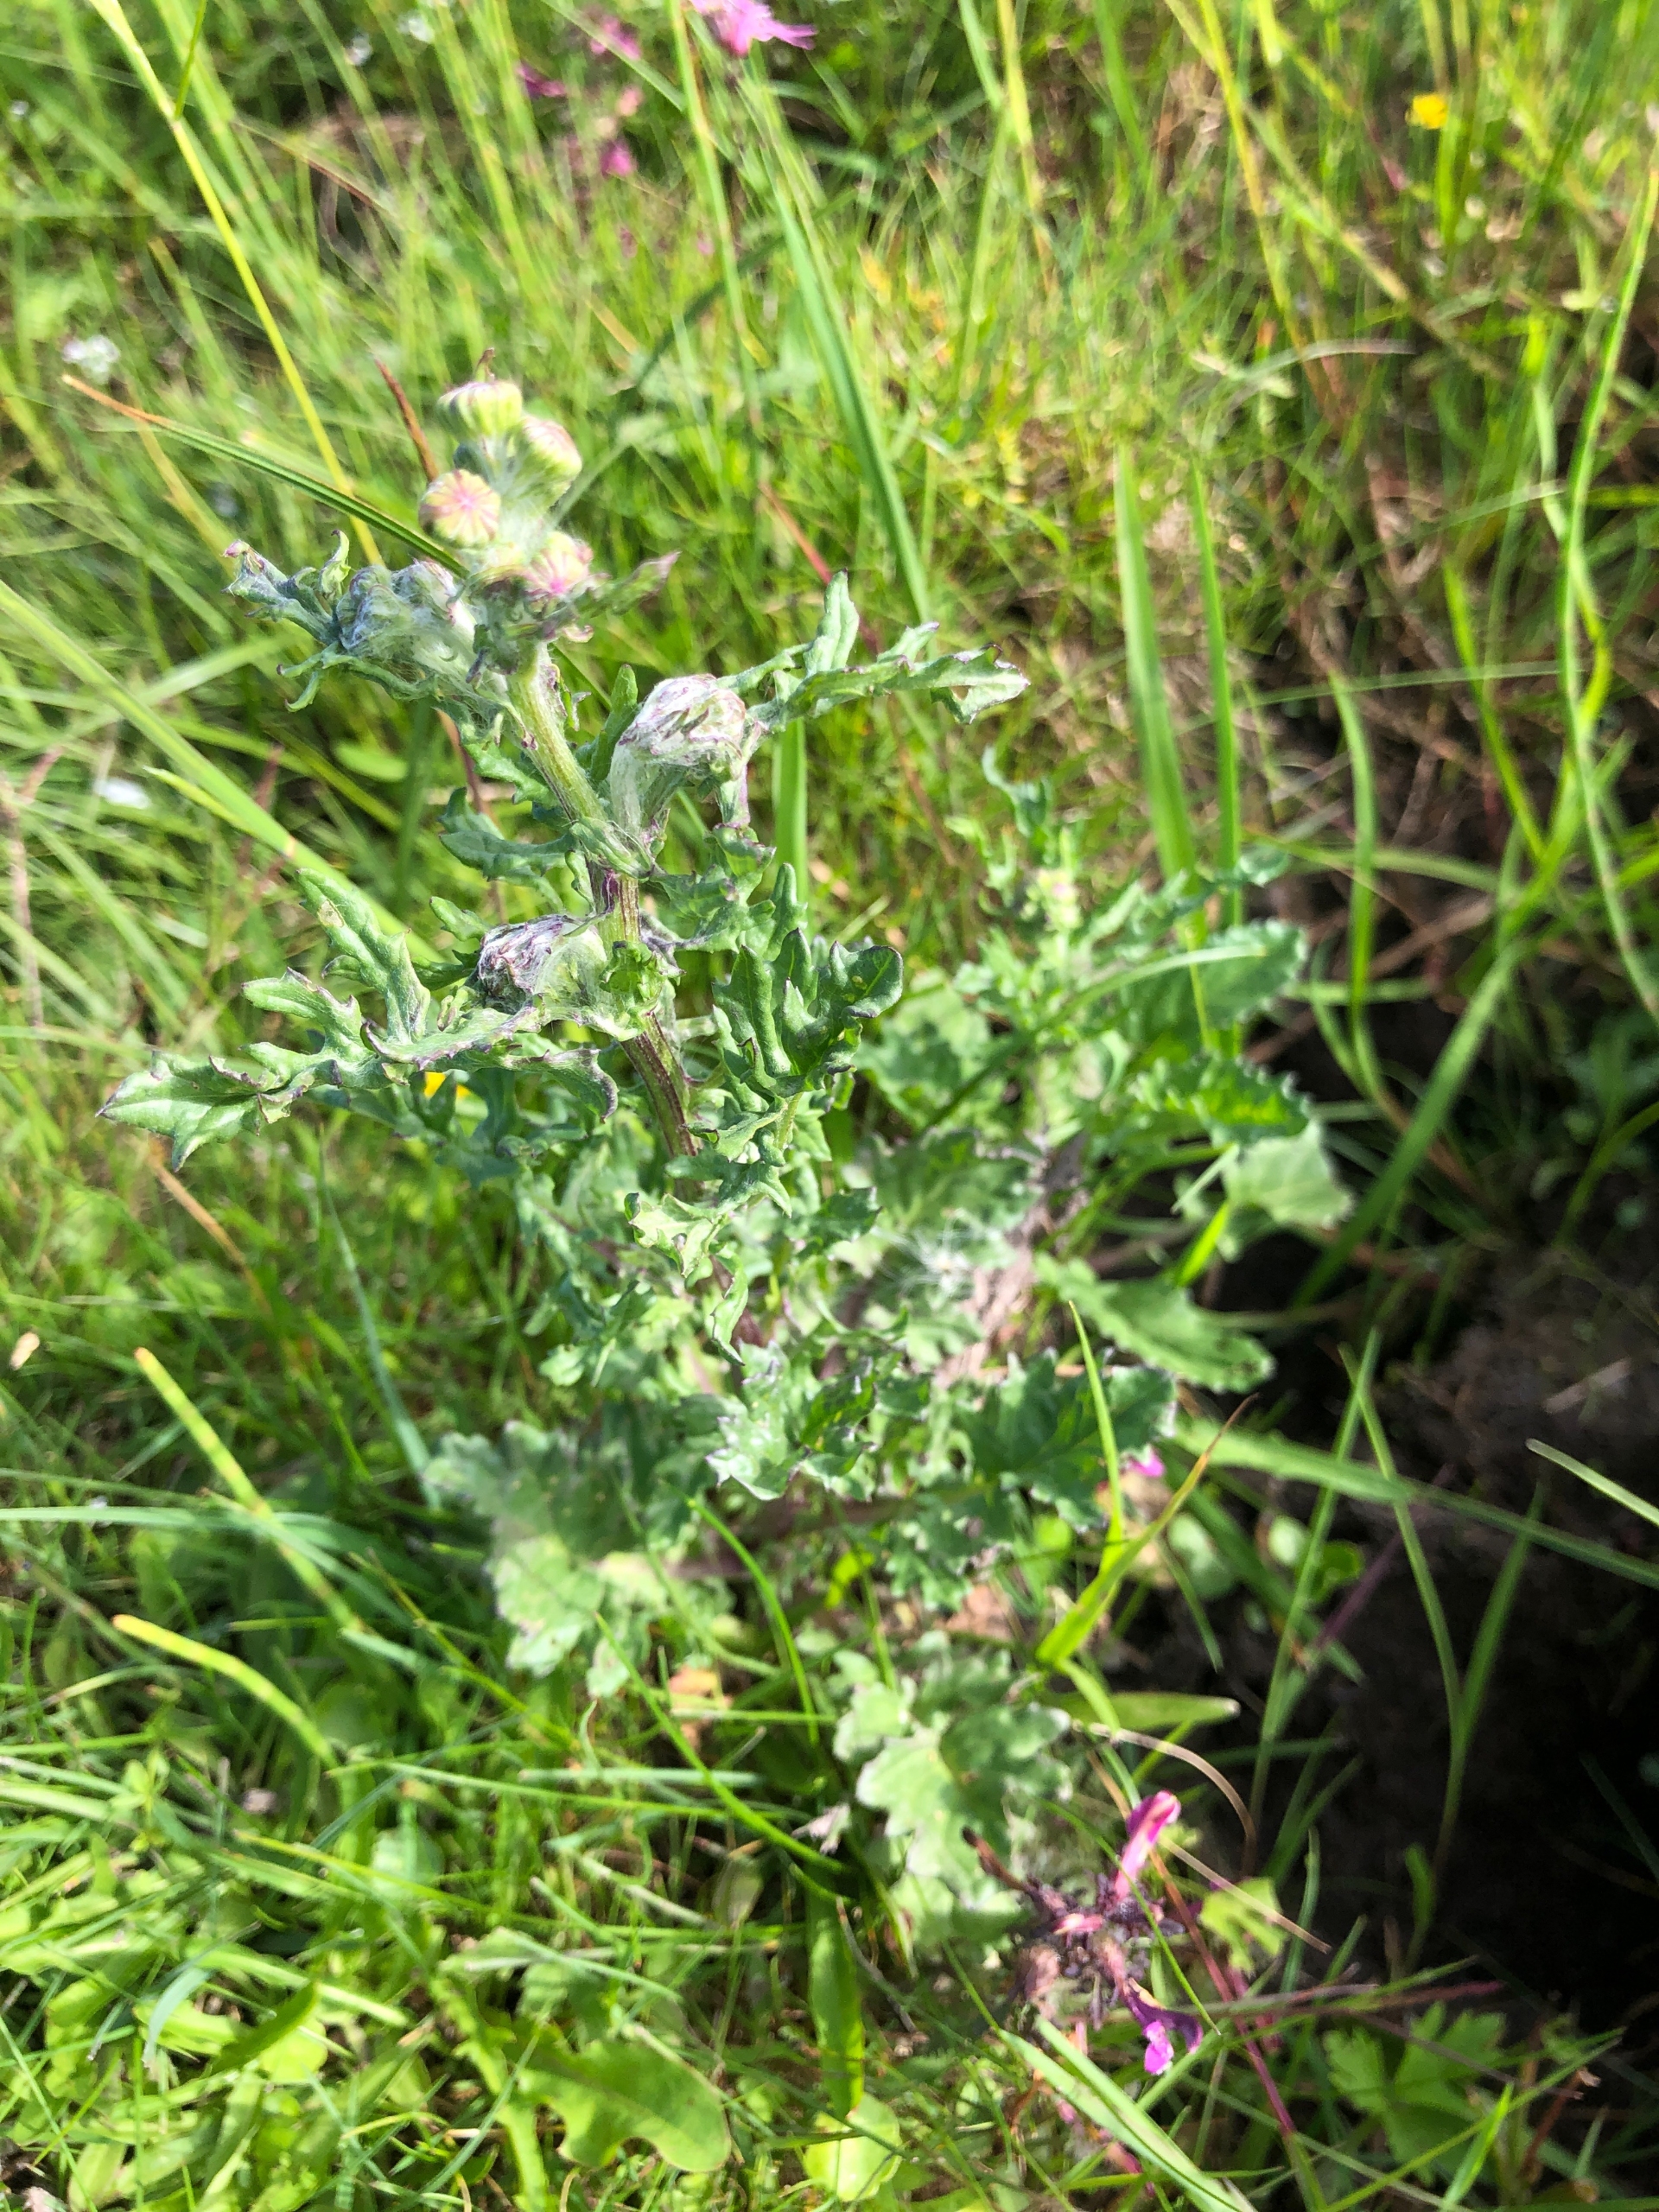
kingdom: Plantae
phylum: Tracheophyta
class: Magnoliopsida
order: Asterales
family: Asteraceae
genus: Jacobaea
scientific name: Jacobaea vulgaris
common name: Eng-brandbæger
